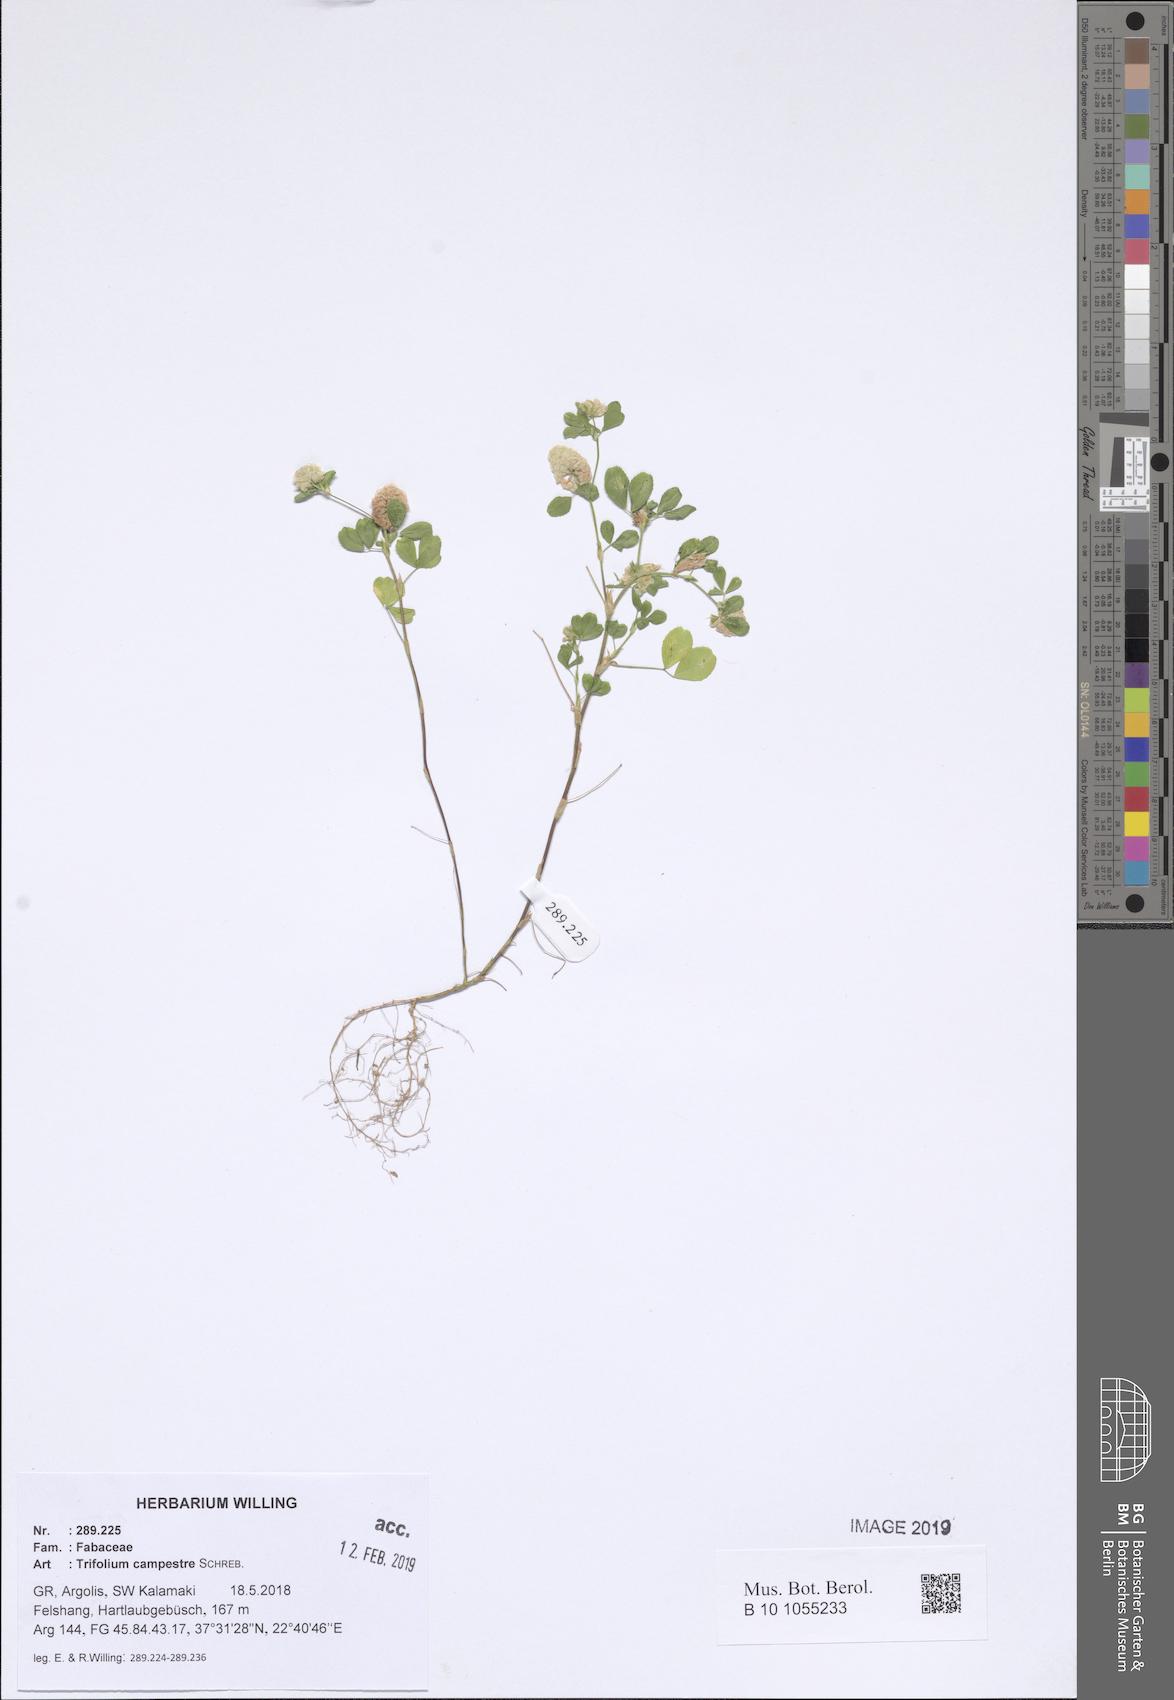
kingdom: Plantae
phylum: Tracheophyta
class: Magnoliopsida
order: Fabales
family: Fabaceae
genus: Trifolium
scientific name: Trifolium campestre
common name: Field clover
